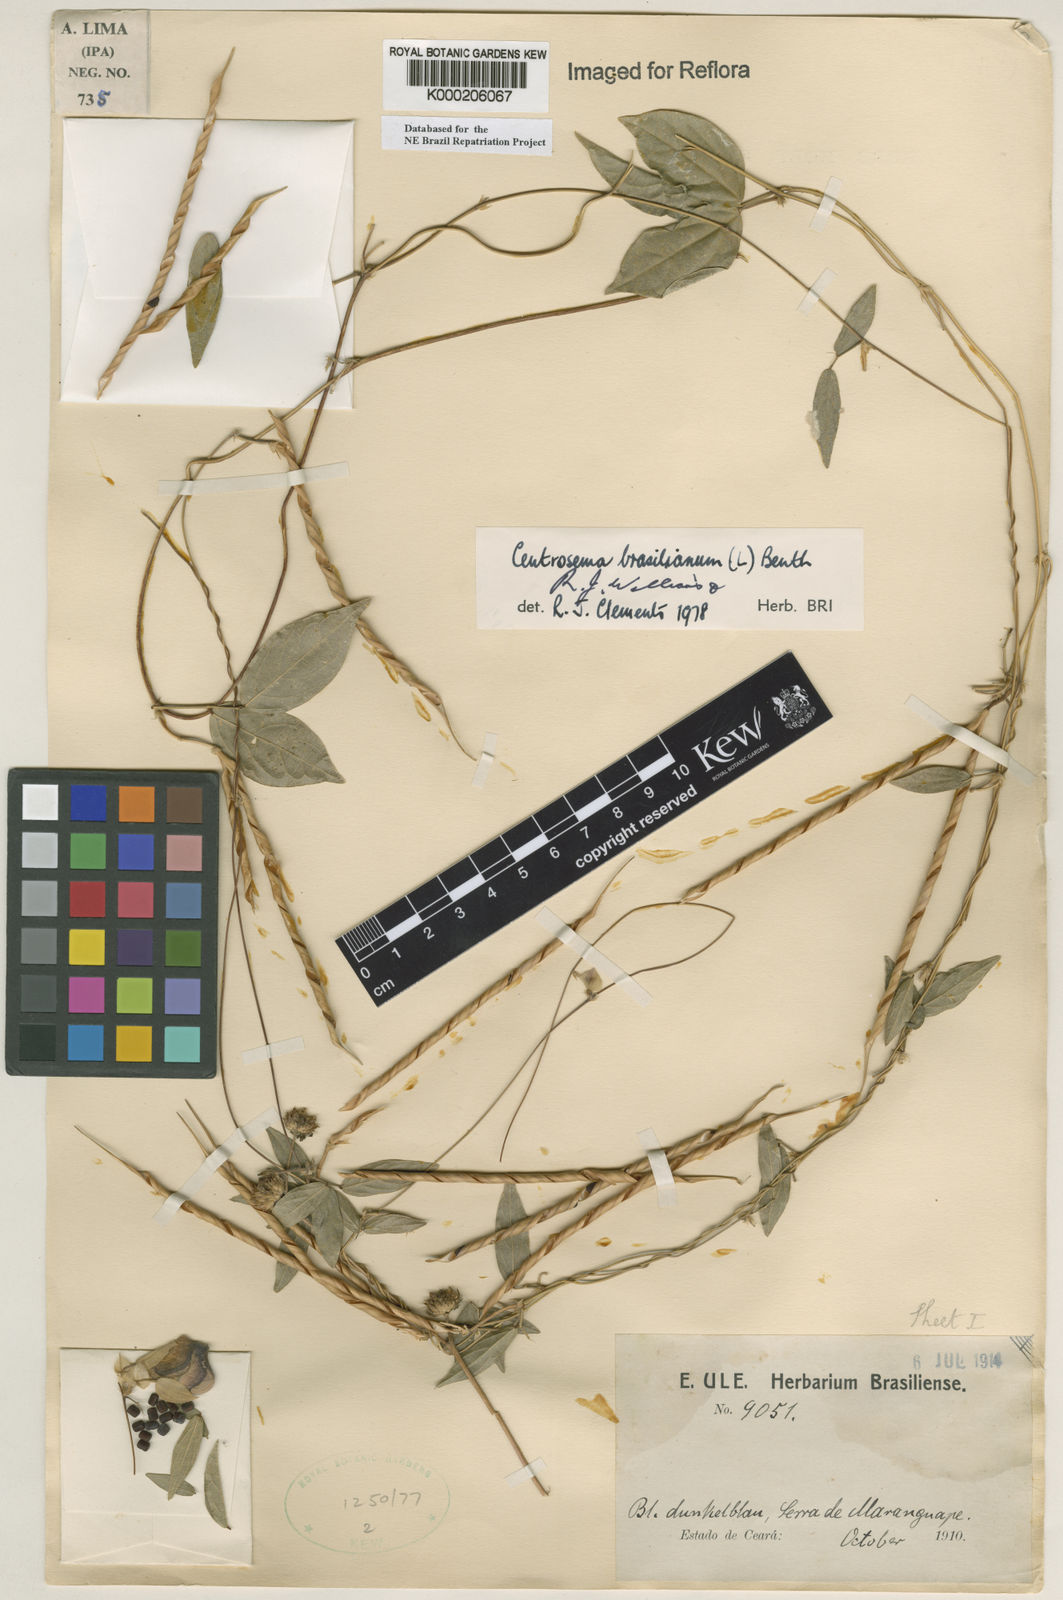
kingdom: Plantae
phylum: Tracheophyta
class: Magnoliopsida
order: Fabales
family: Fabaceae
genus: Centrosema
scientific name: Centrosema brasilianum
